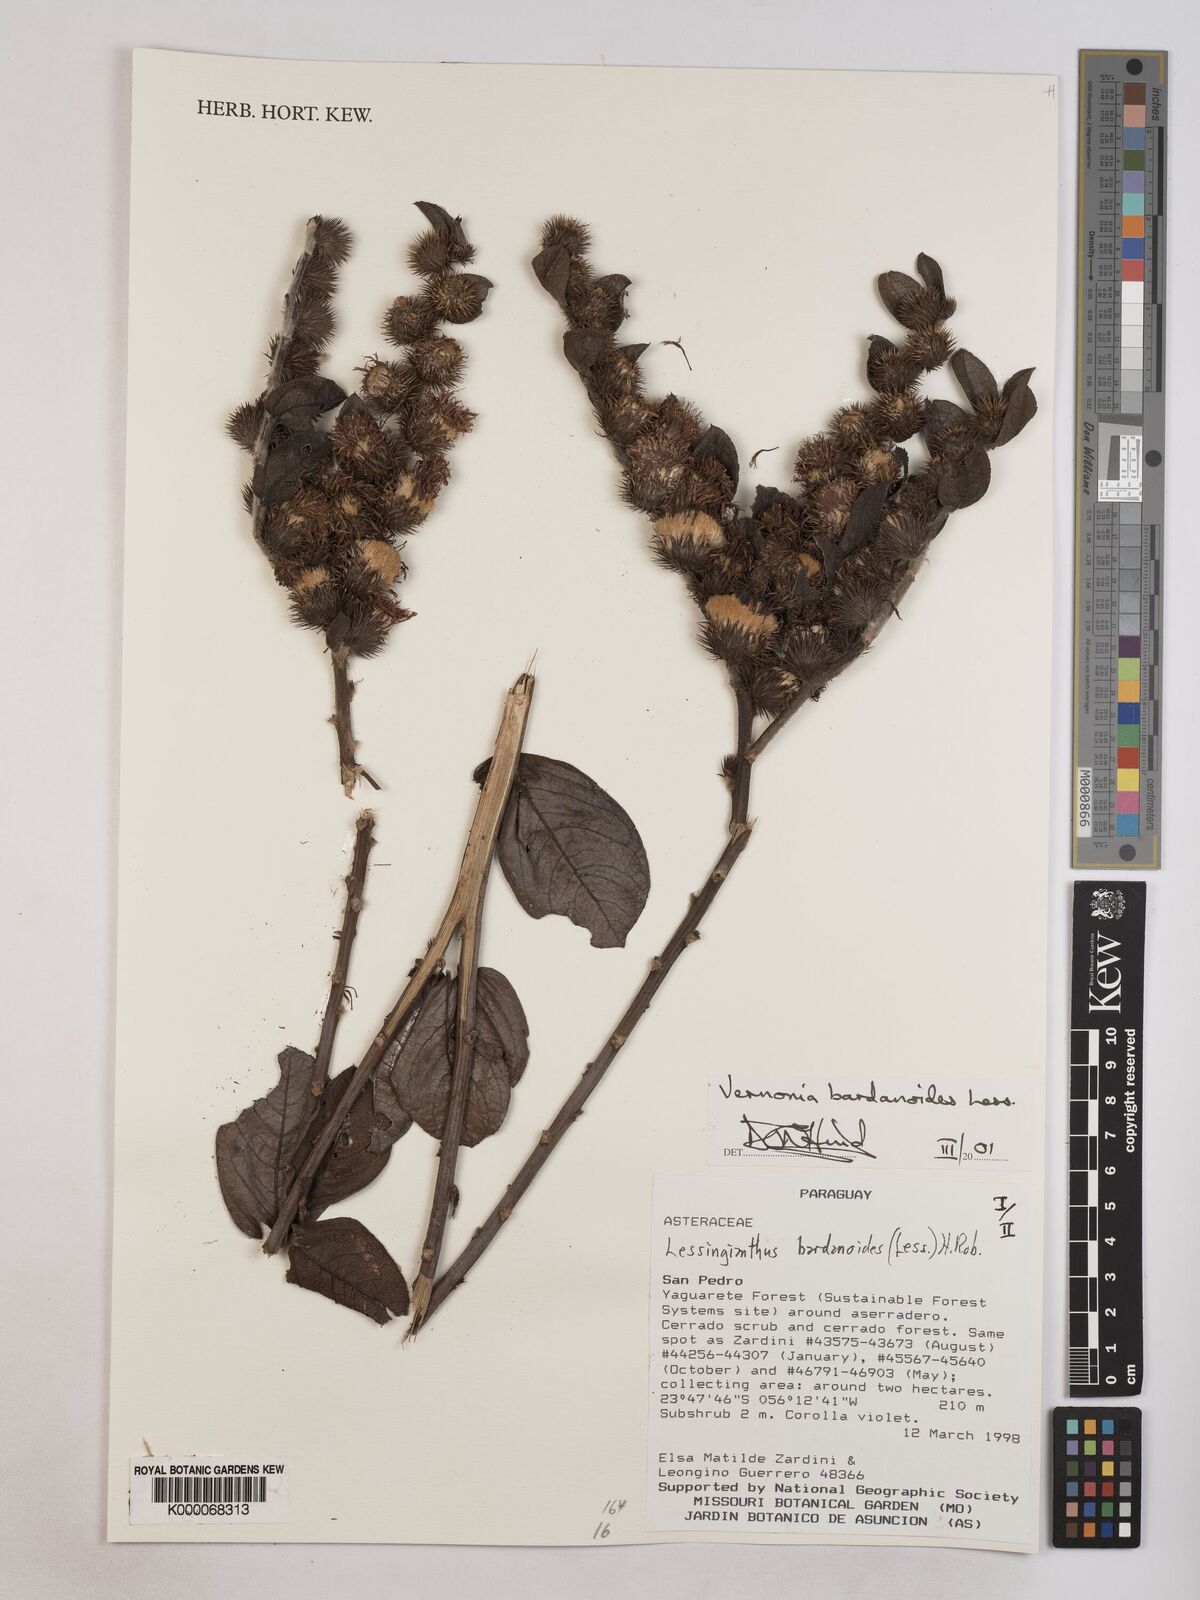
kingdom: Plantae
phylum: Tracheophyta
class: Magnoliopsida
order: Asterales
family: Asteraceae
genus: Lessingianthus
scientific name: Lessingianthus bardanioides
